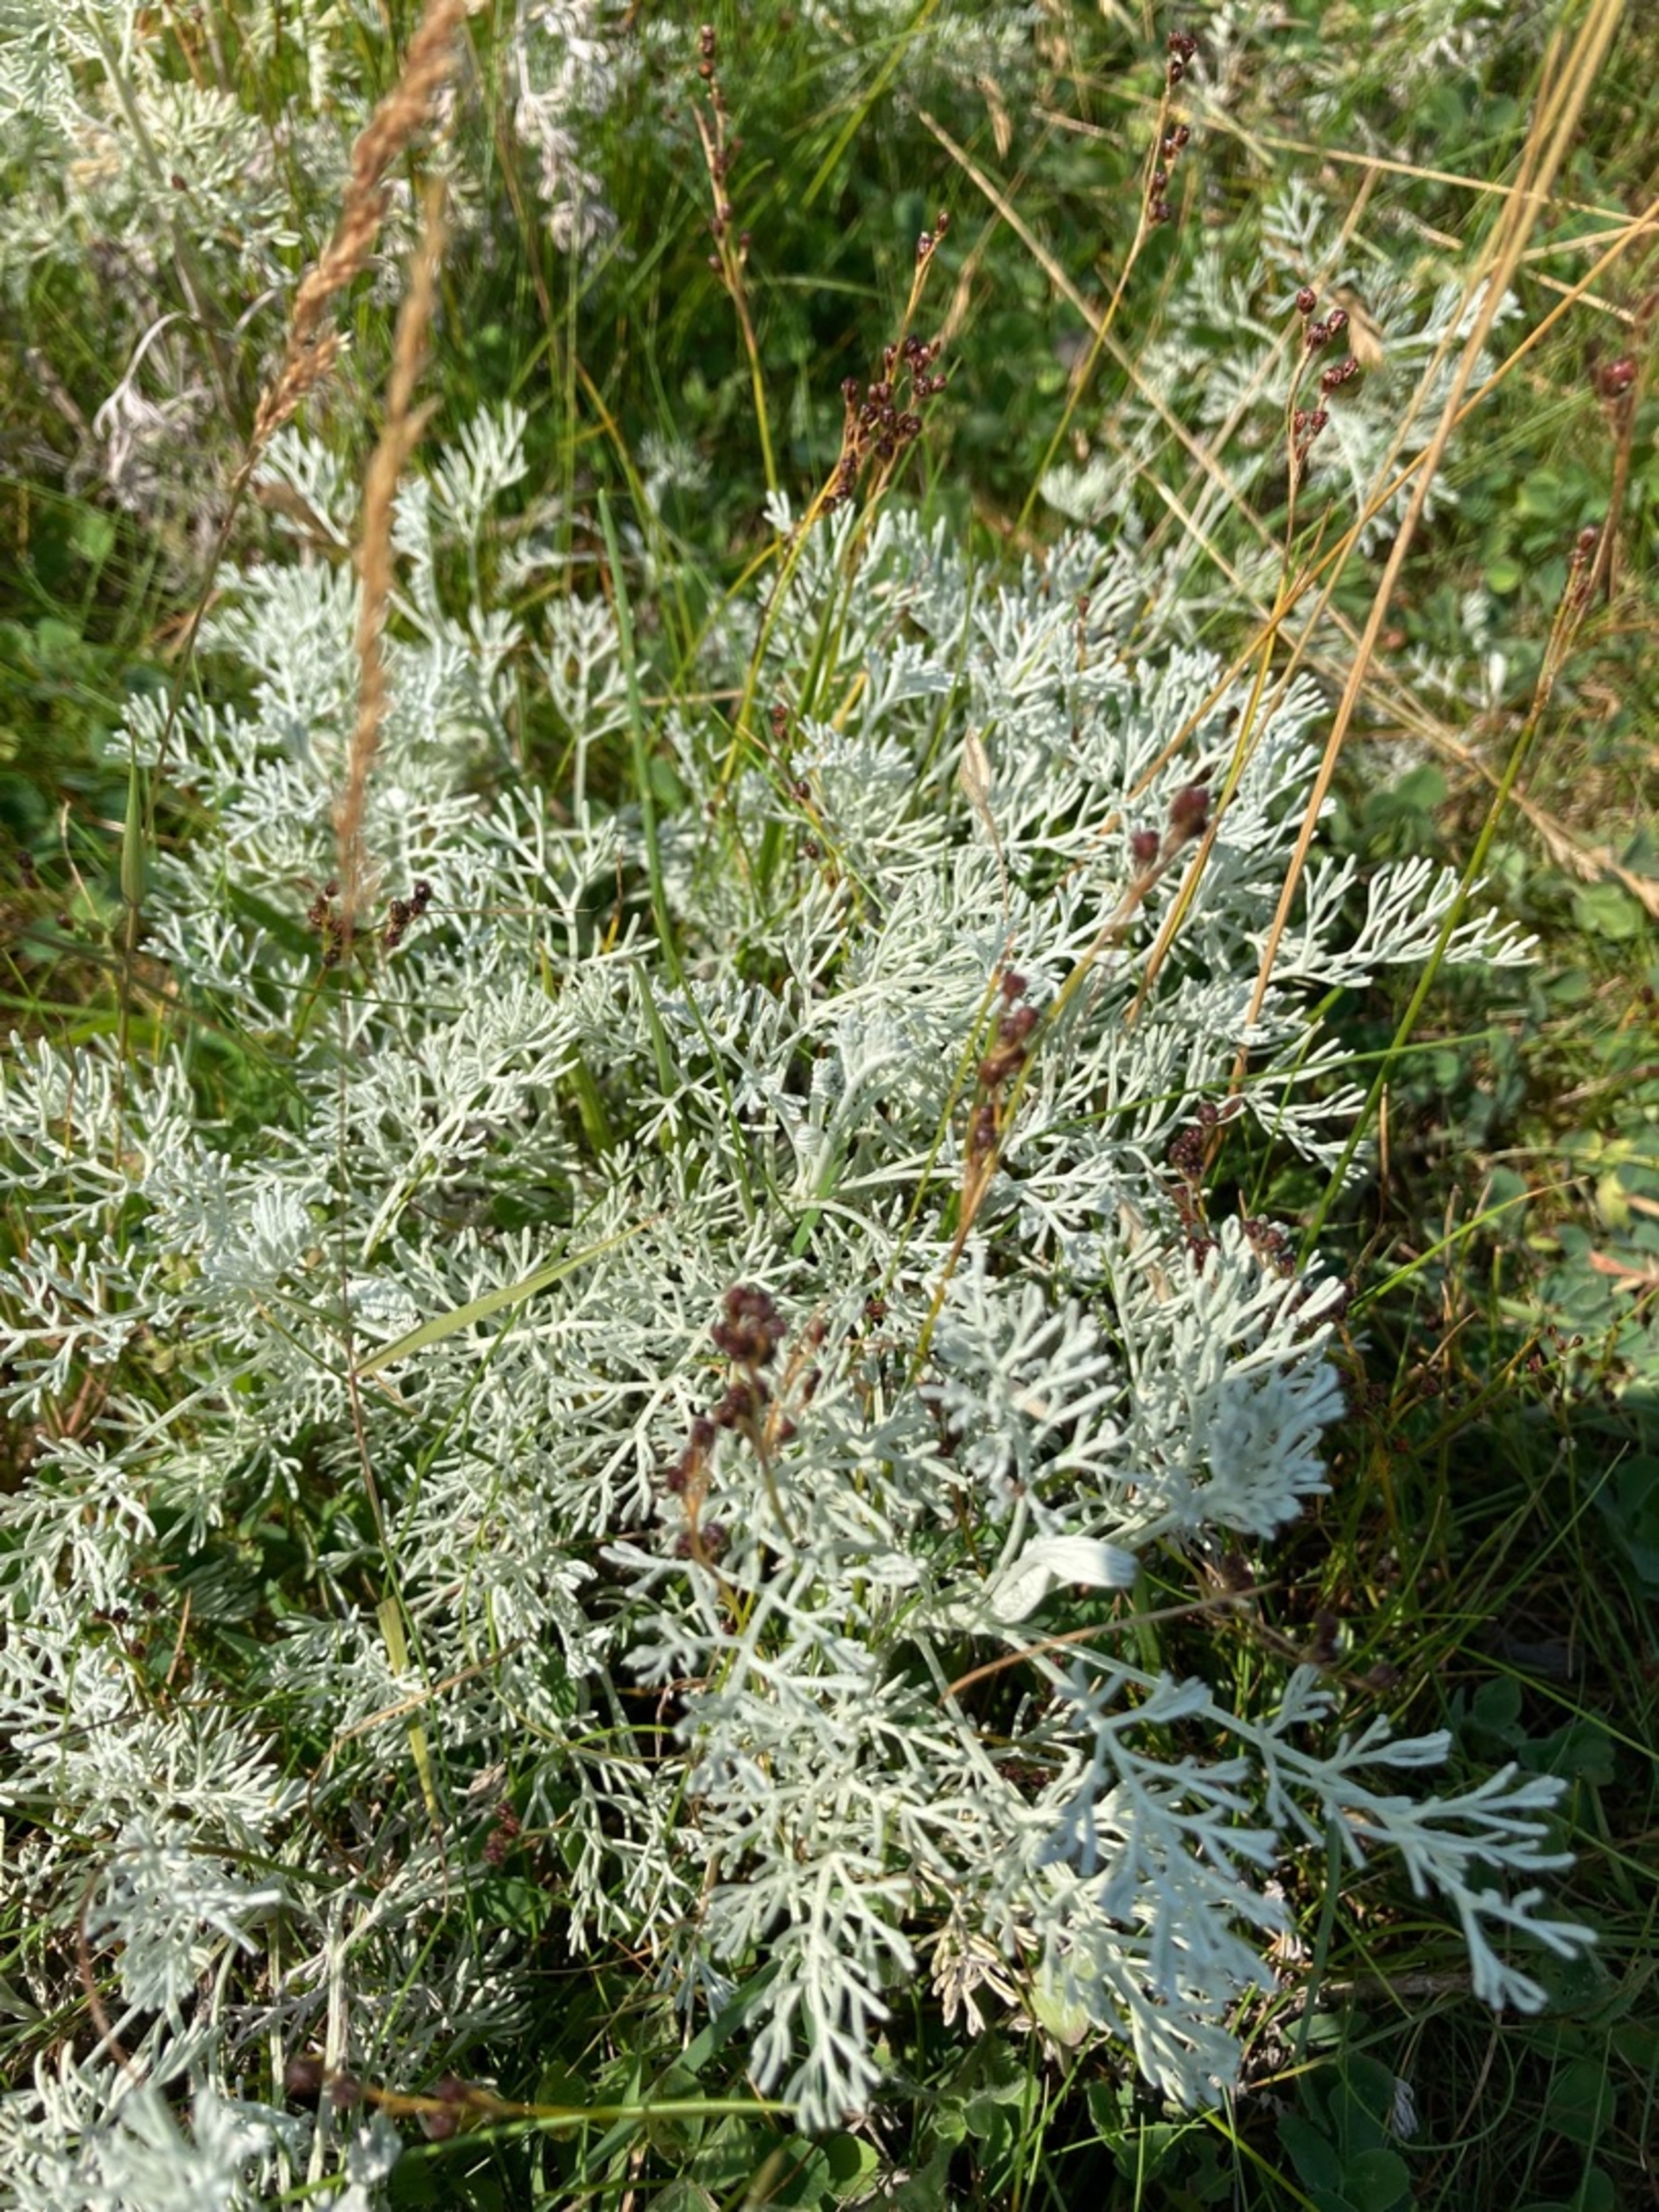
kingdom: Plantae
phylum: Tracheophyta
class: Magnoliopsida
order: Asterales
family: Asteraceae
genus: Artemisia
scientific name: Artemisia maritima
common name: Strandmalurt
